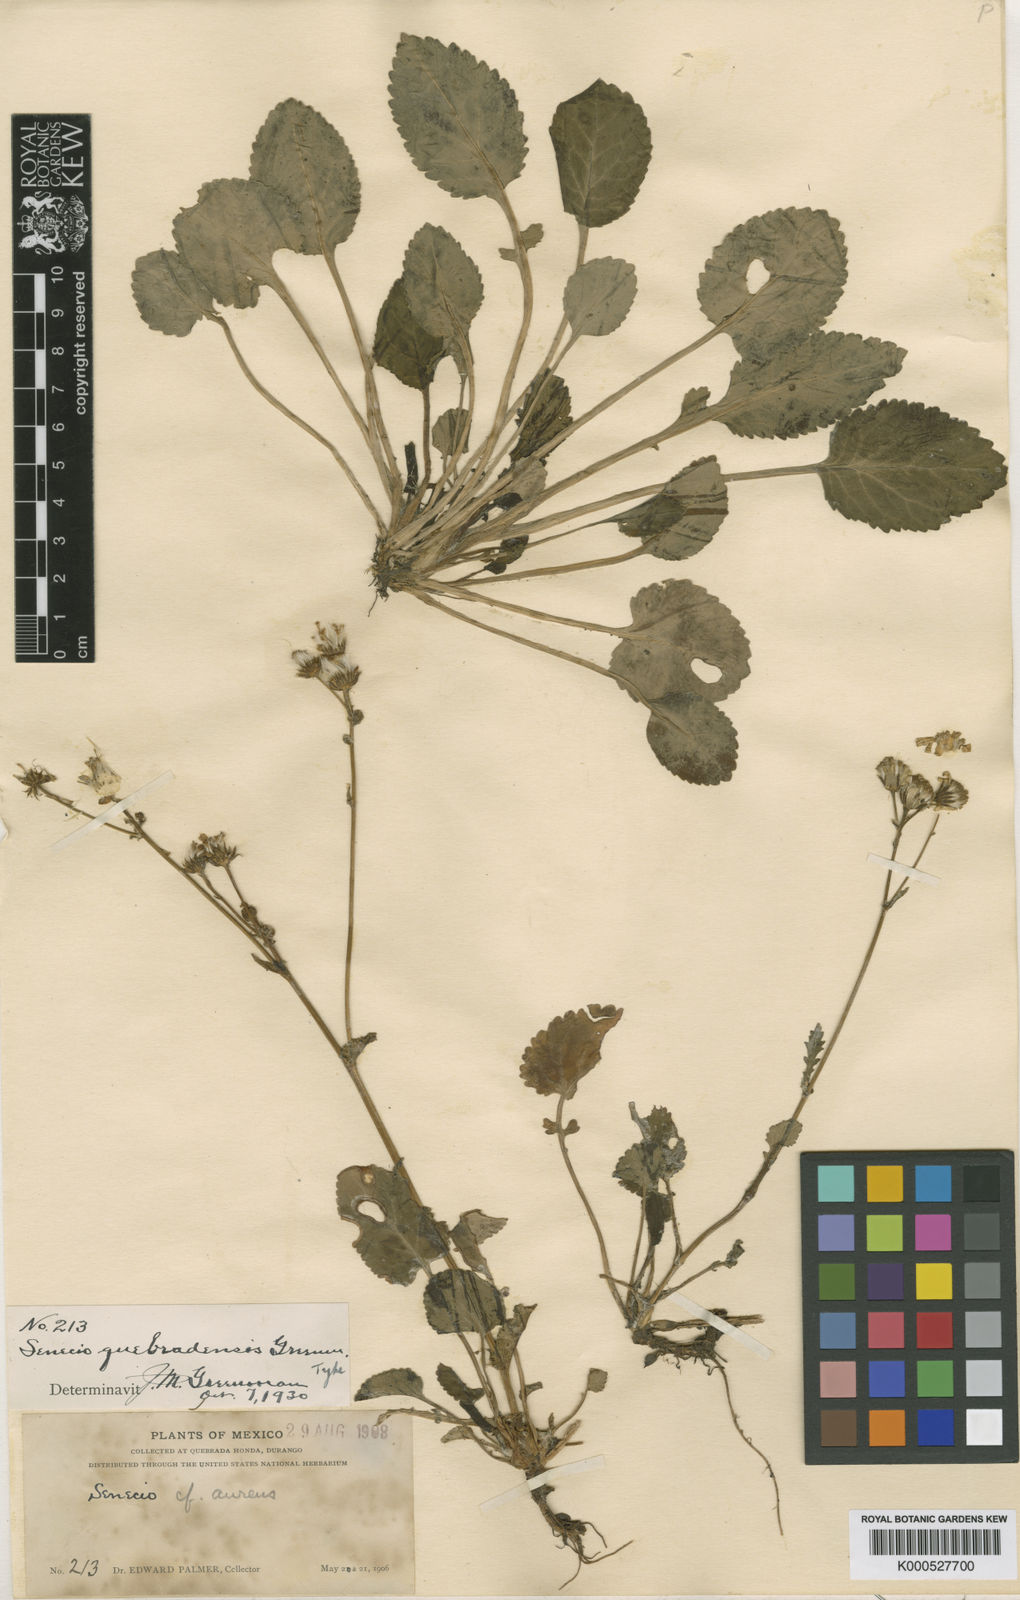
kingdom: Plantae
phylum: Tracheophyta
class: Magnoliopsida
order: Asterales
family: Asteraceae
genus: Packera
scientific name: Packera
